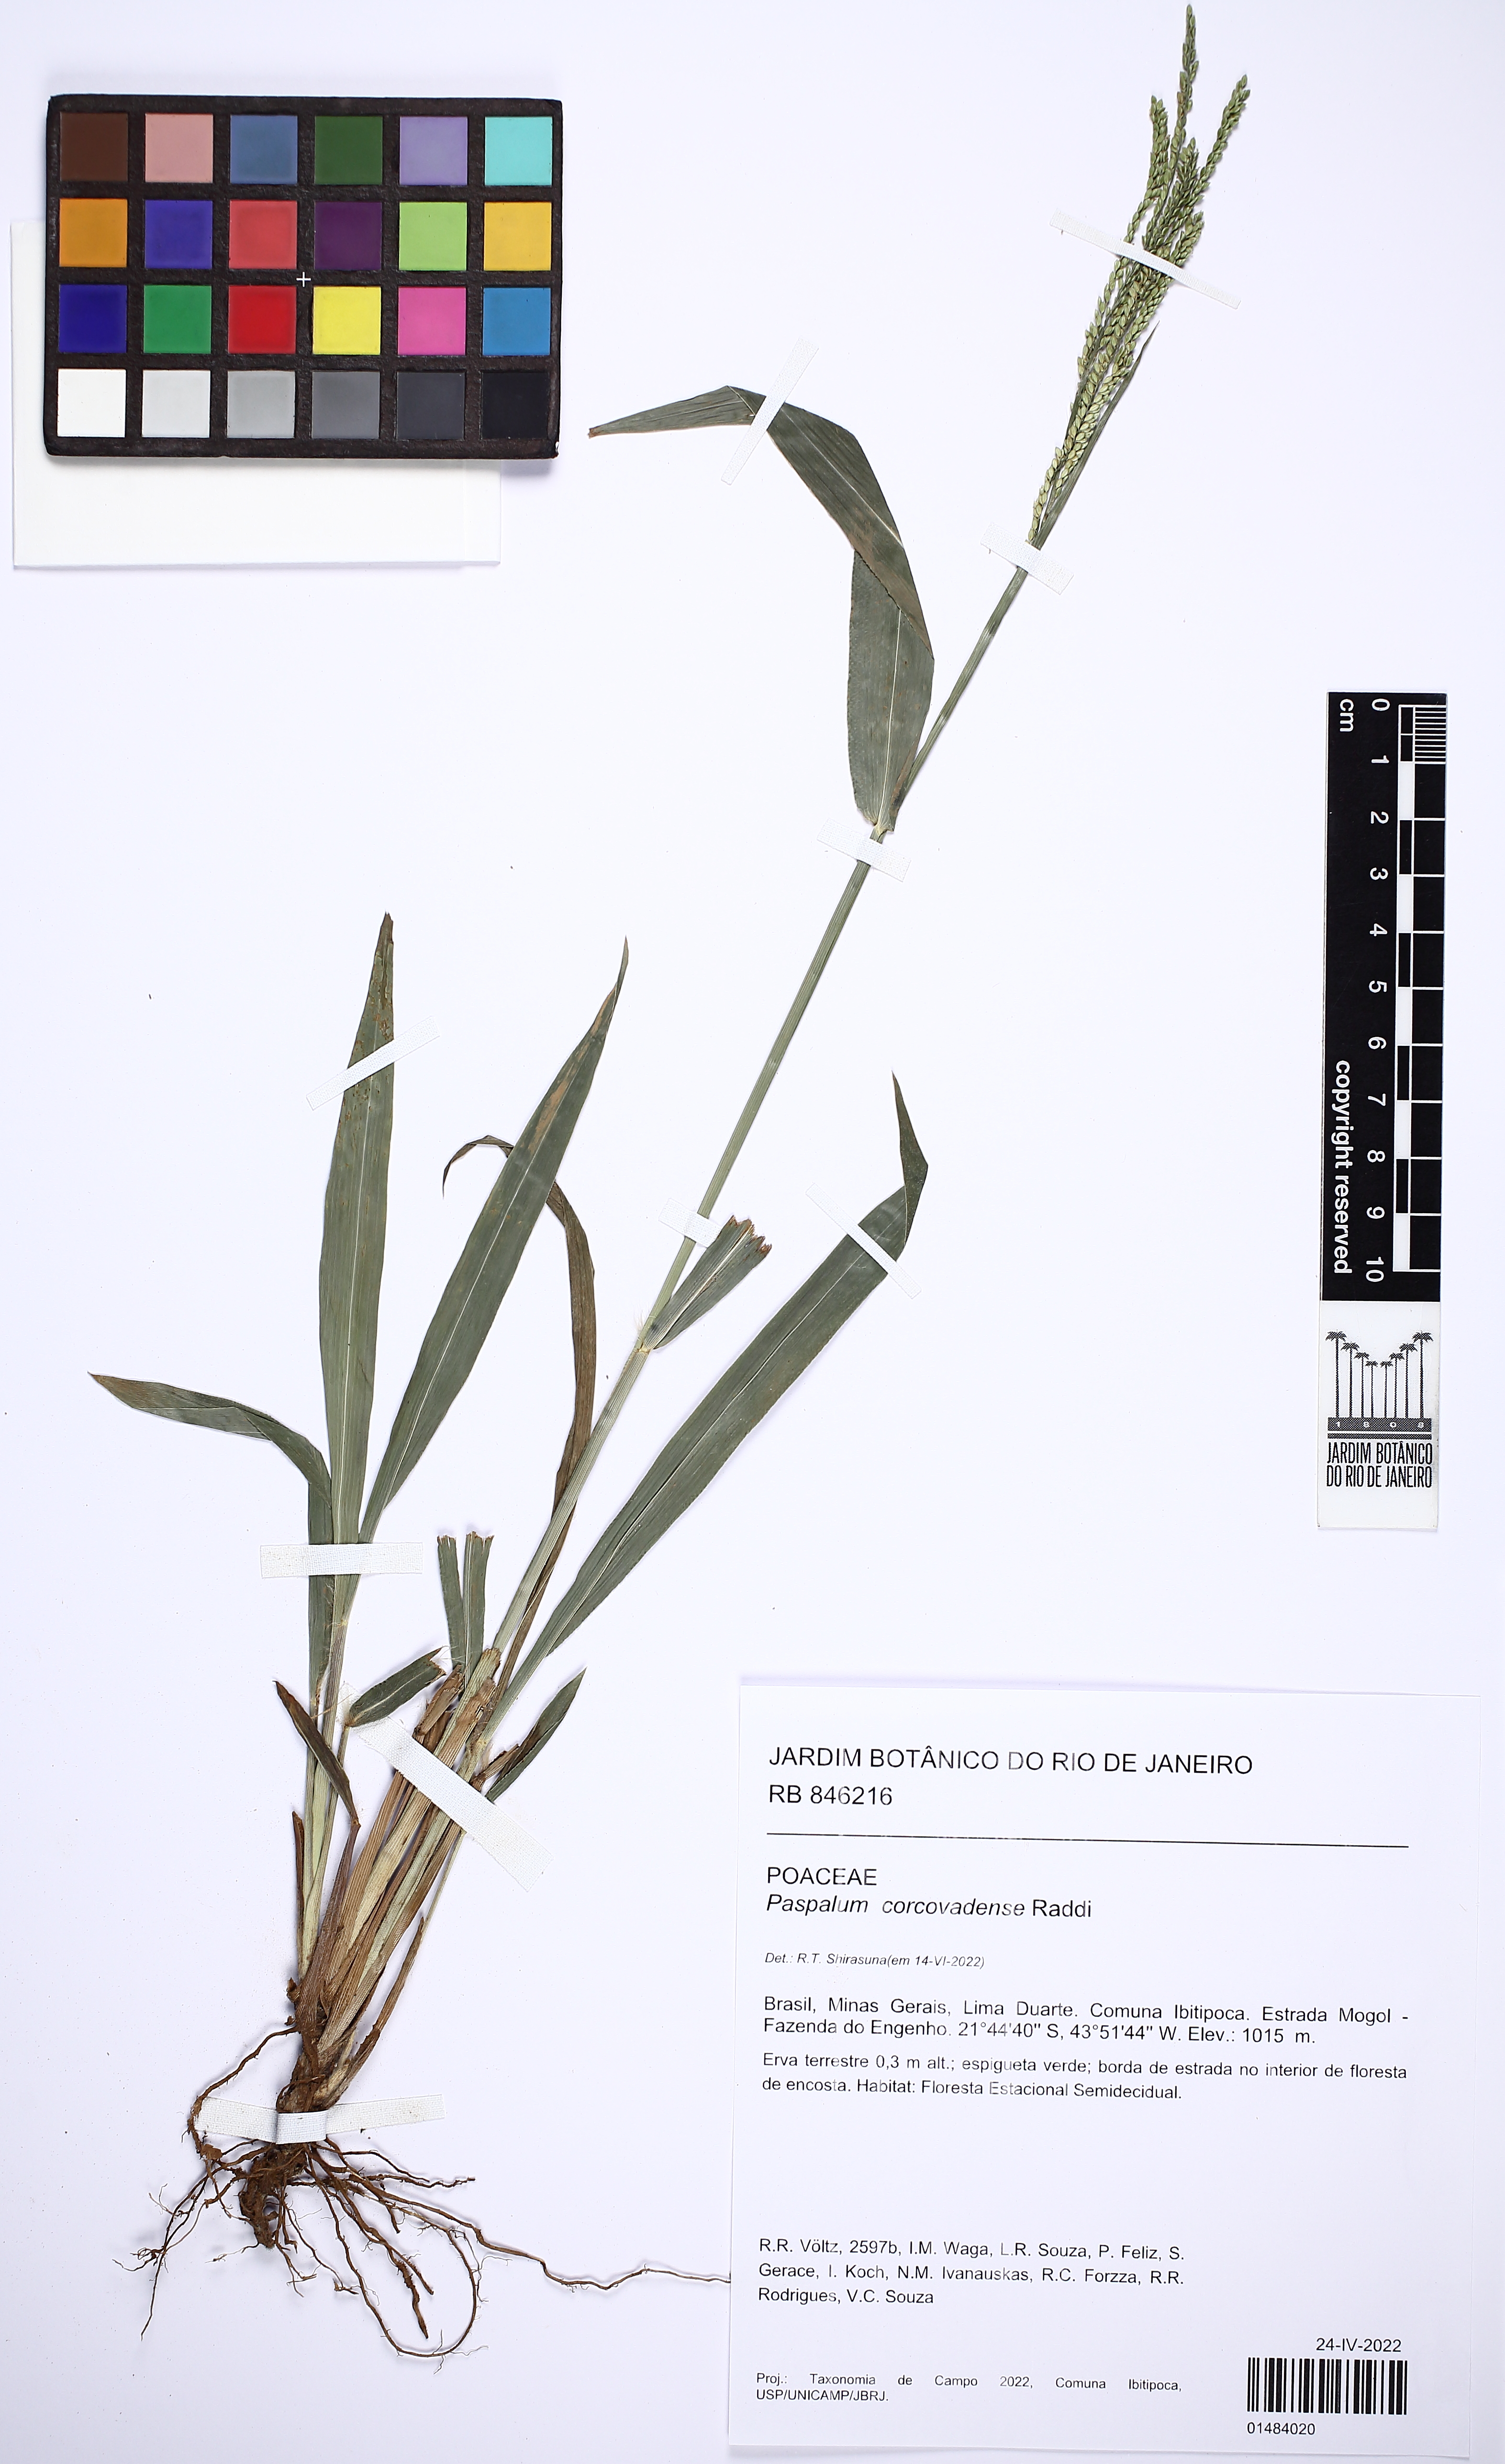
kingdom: Plantae
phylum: Tracheophyta
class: Liliopsida
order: Poales
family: Poaceae
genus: Paspalum
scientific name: Paspalum corcovadense
